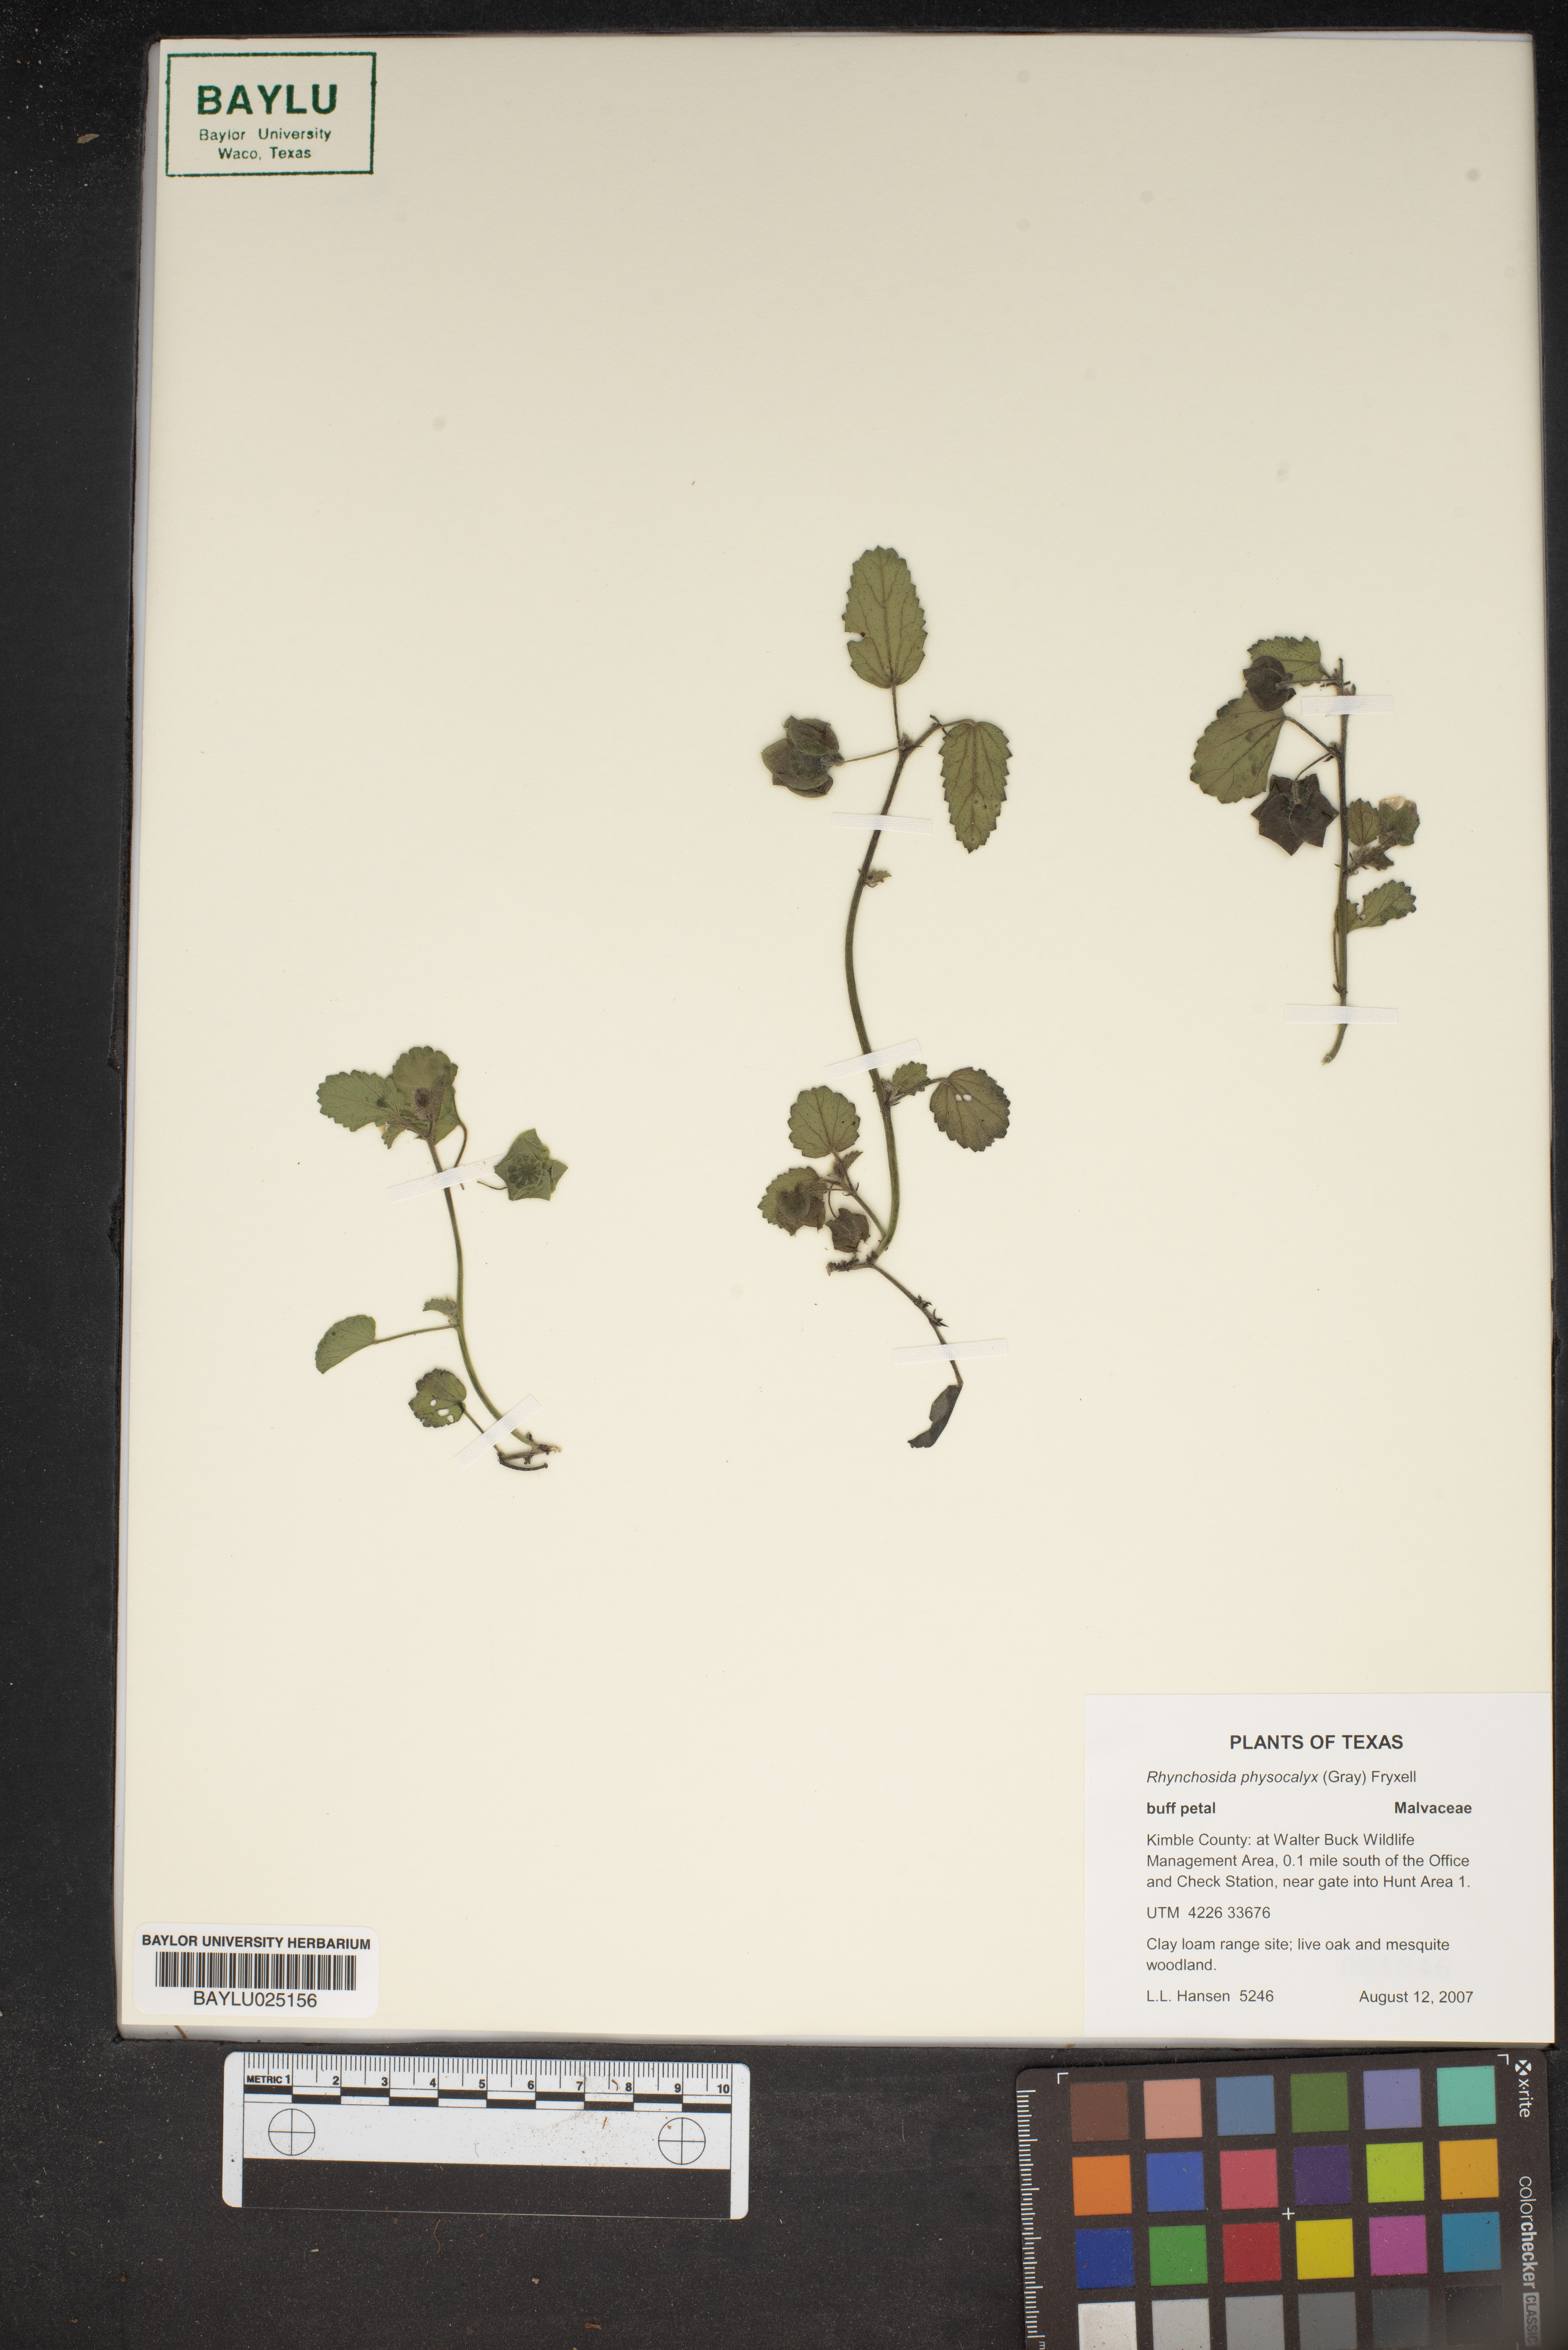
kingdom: Plantae
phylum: Tracheophyta
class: Magnoliopsida
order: Malvales
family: Malvaceae
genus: Rhynchosida
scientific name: Rhynchosida physocalyx
